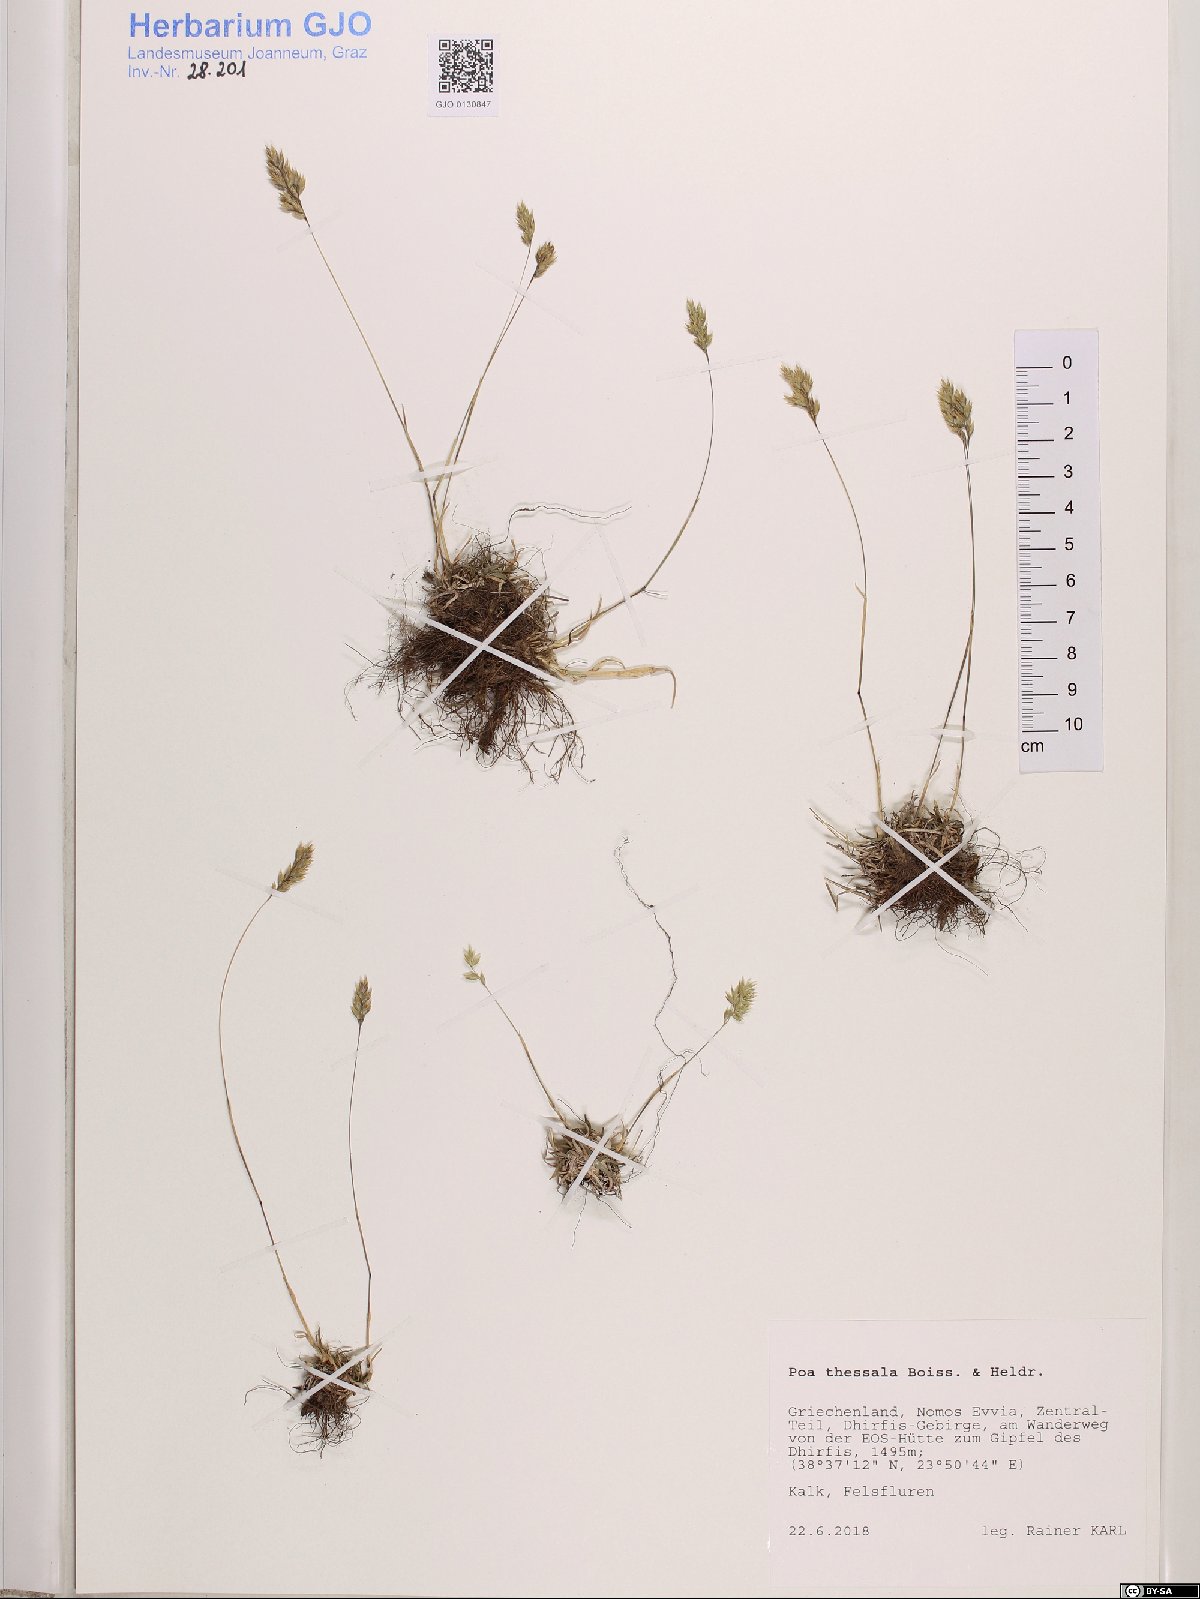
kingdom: Plantae
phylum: Tracheophyta
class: Liliopsida
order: Poales
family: Poaceae
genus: Poa
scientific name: Poa thessala
